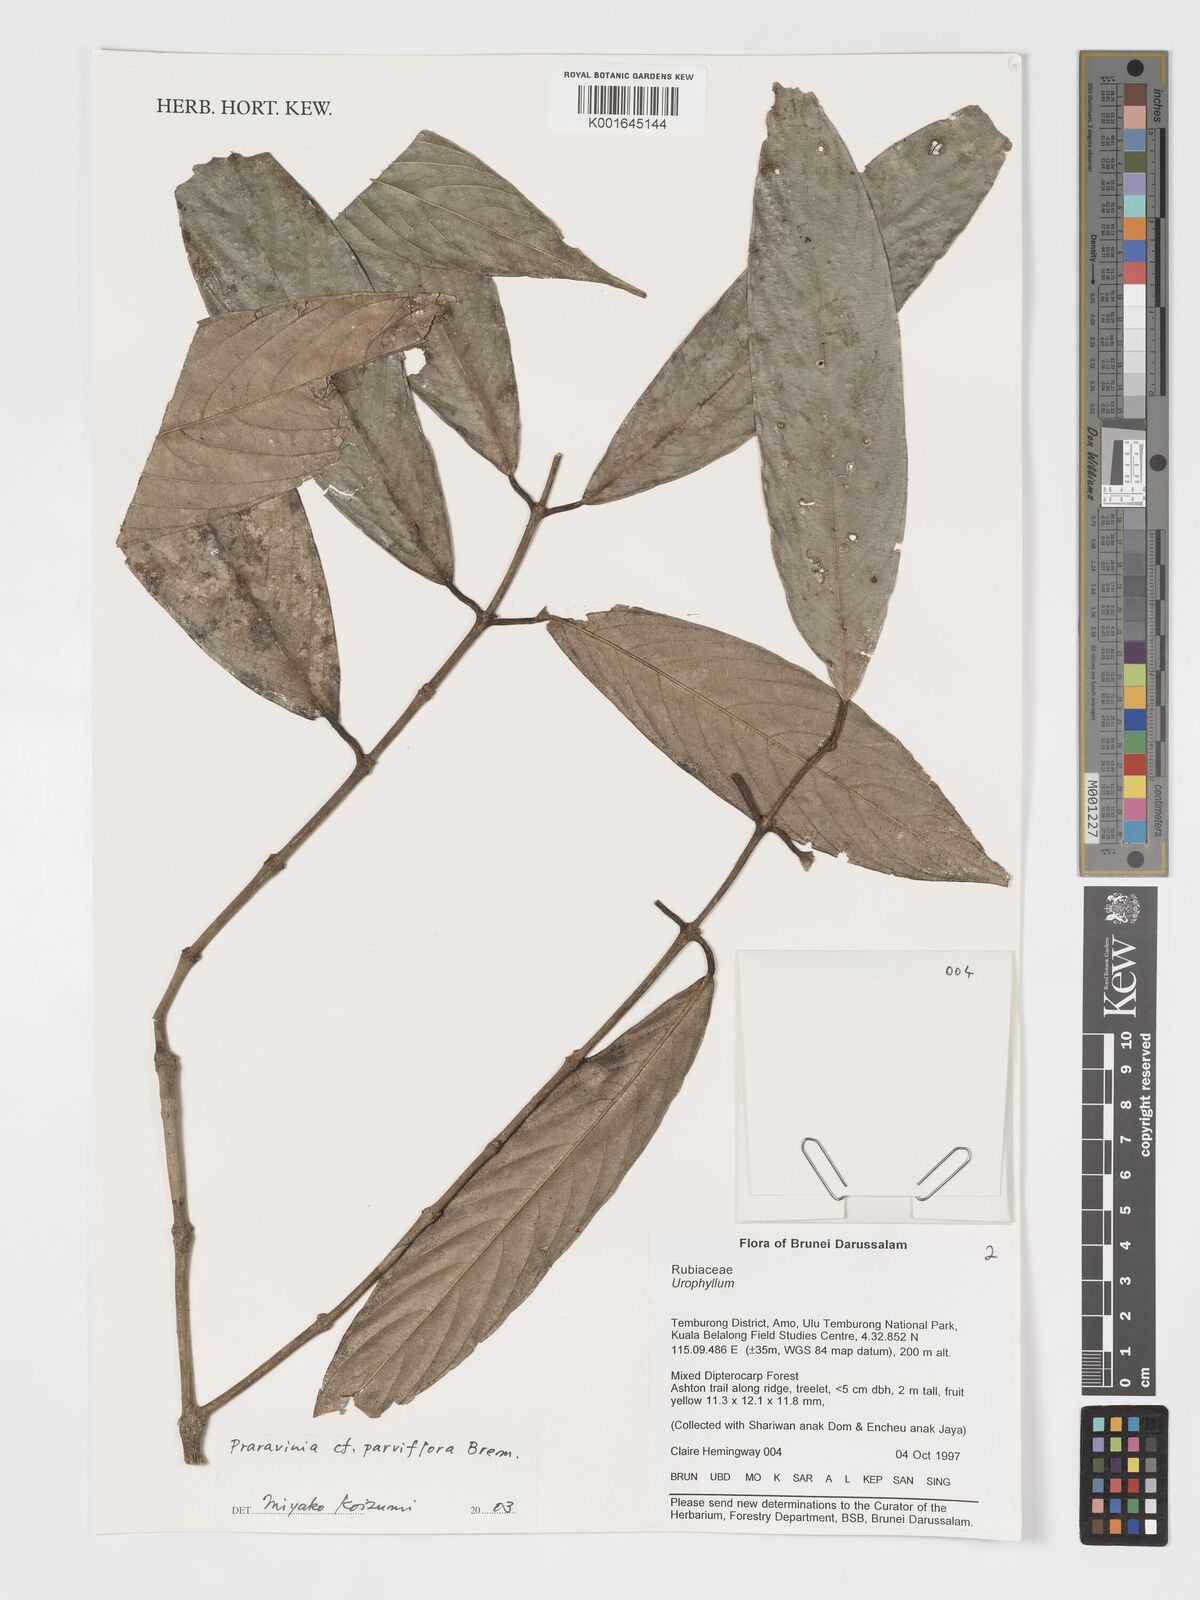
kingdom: Plantae
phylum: Tracheophyta
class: Magnoliopsida
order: Gentianales
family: Rubiaceae
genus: Praravinia
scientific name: Praravinia parviflora
